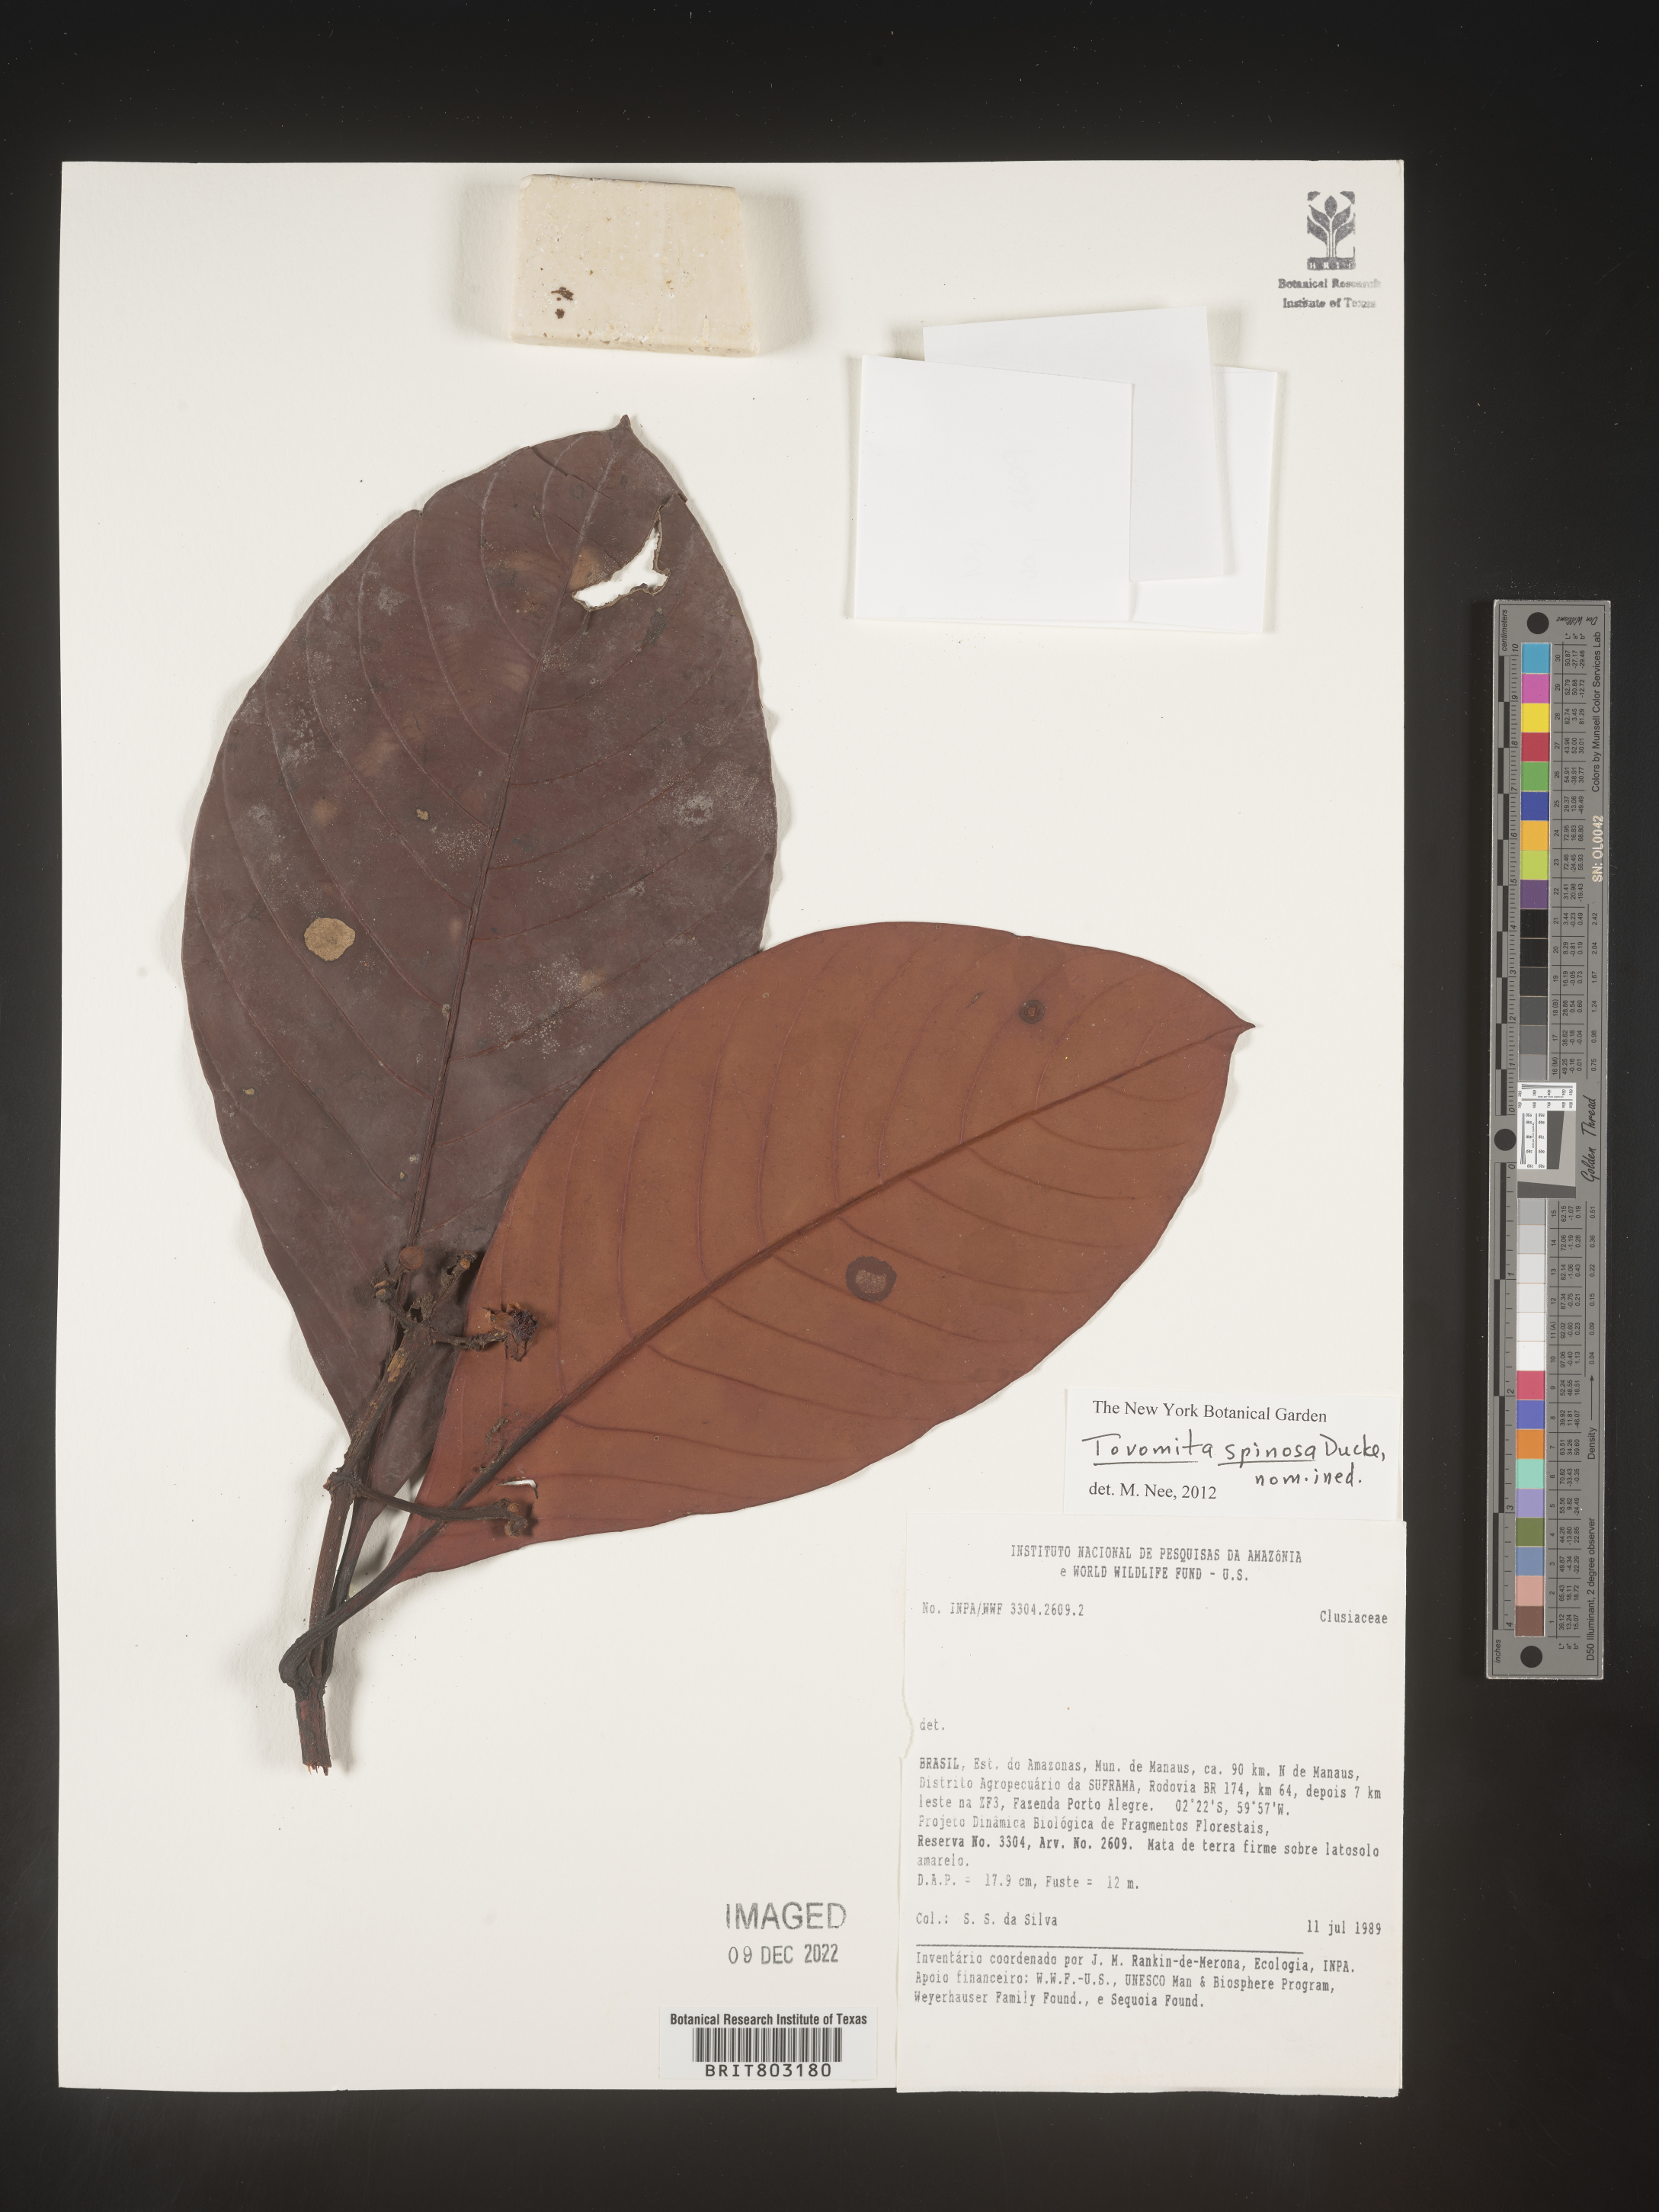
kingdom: Plantae
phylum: Tracheophyta
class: Magnoliopsida
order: Malpighiales
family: Clusiaceae
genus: Tovomita
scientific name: Tovomita
